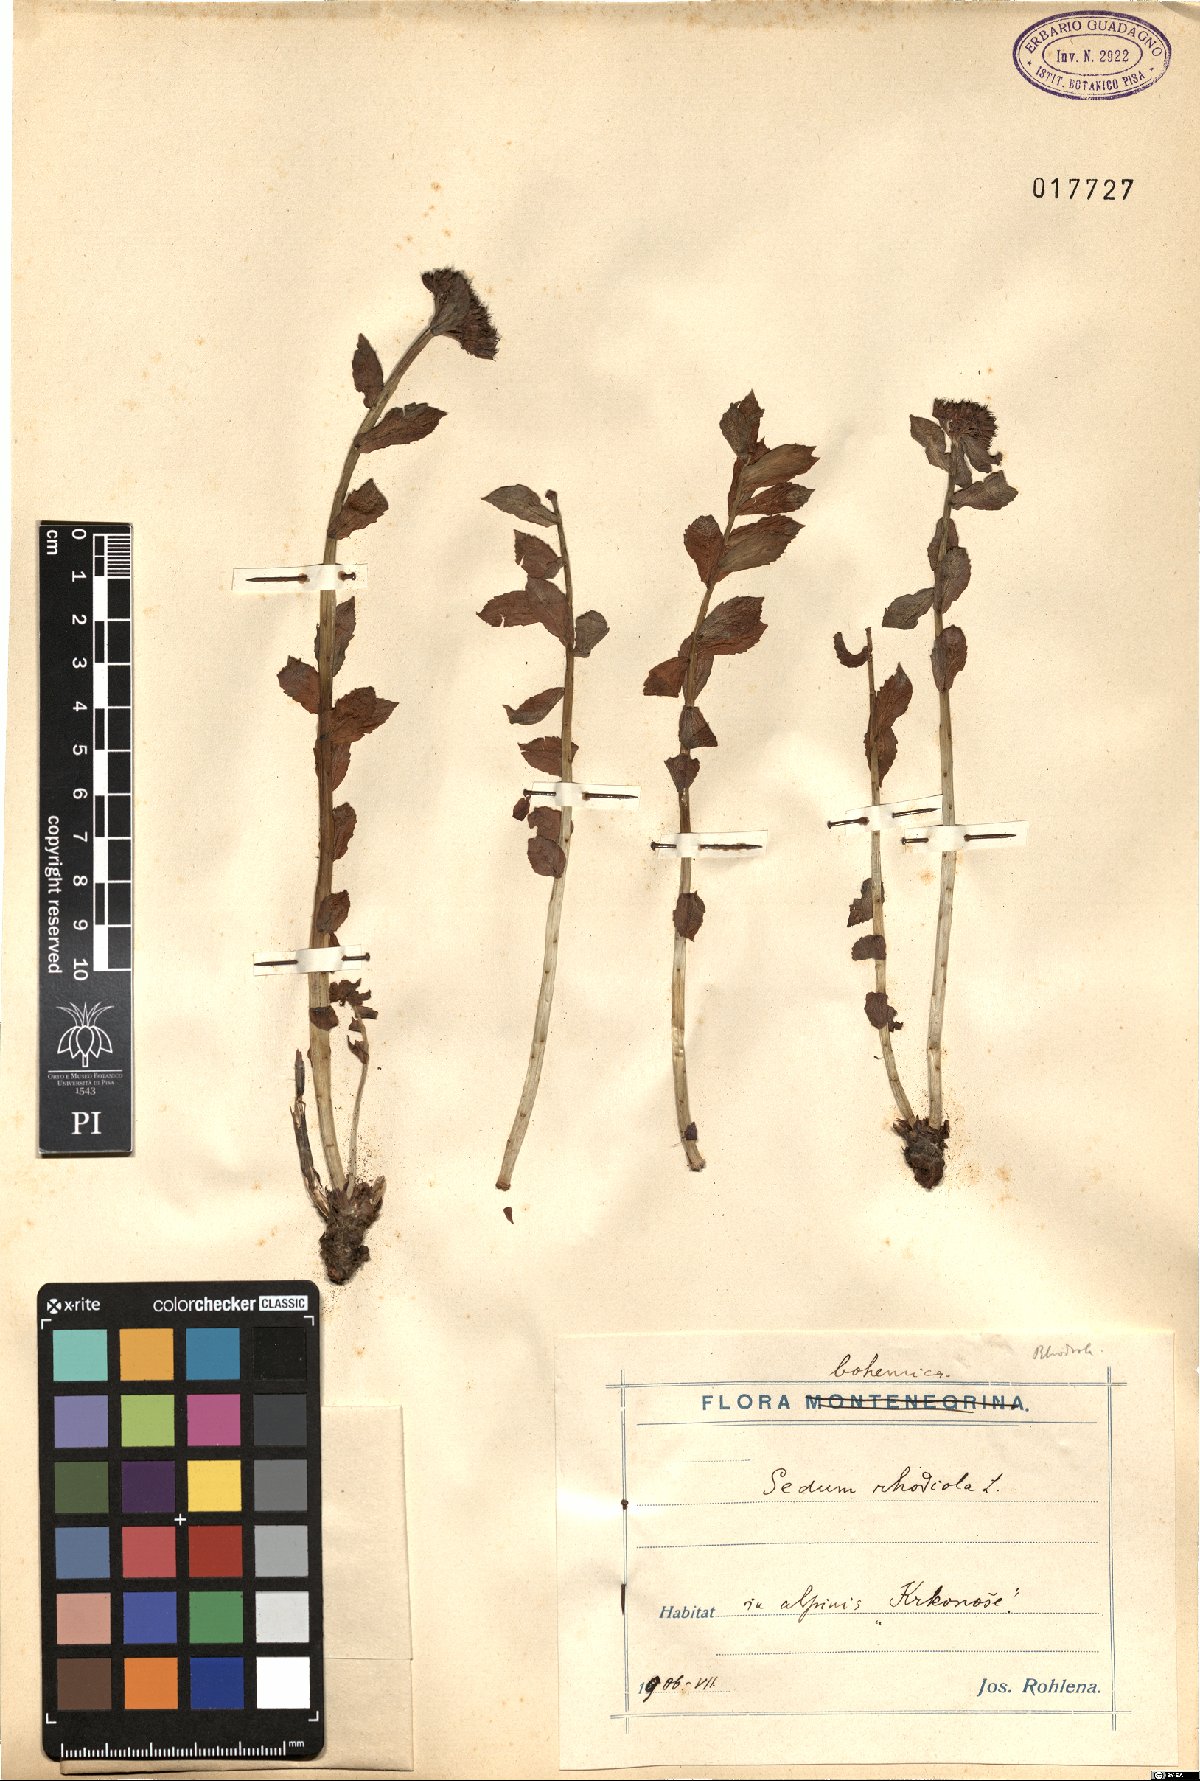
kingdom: Plantae
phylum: Tracheophyta
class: Magnoliopsida
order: Saxifragales
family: Crassulaceae
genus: Rhodiola
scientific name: Rhodiola rosea
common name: Roseroot
